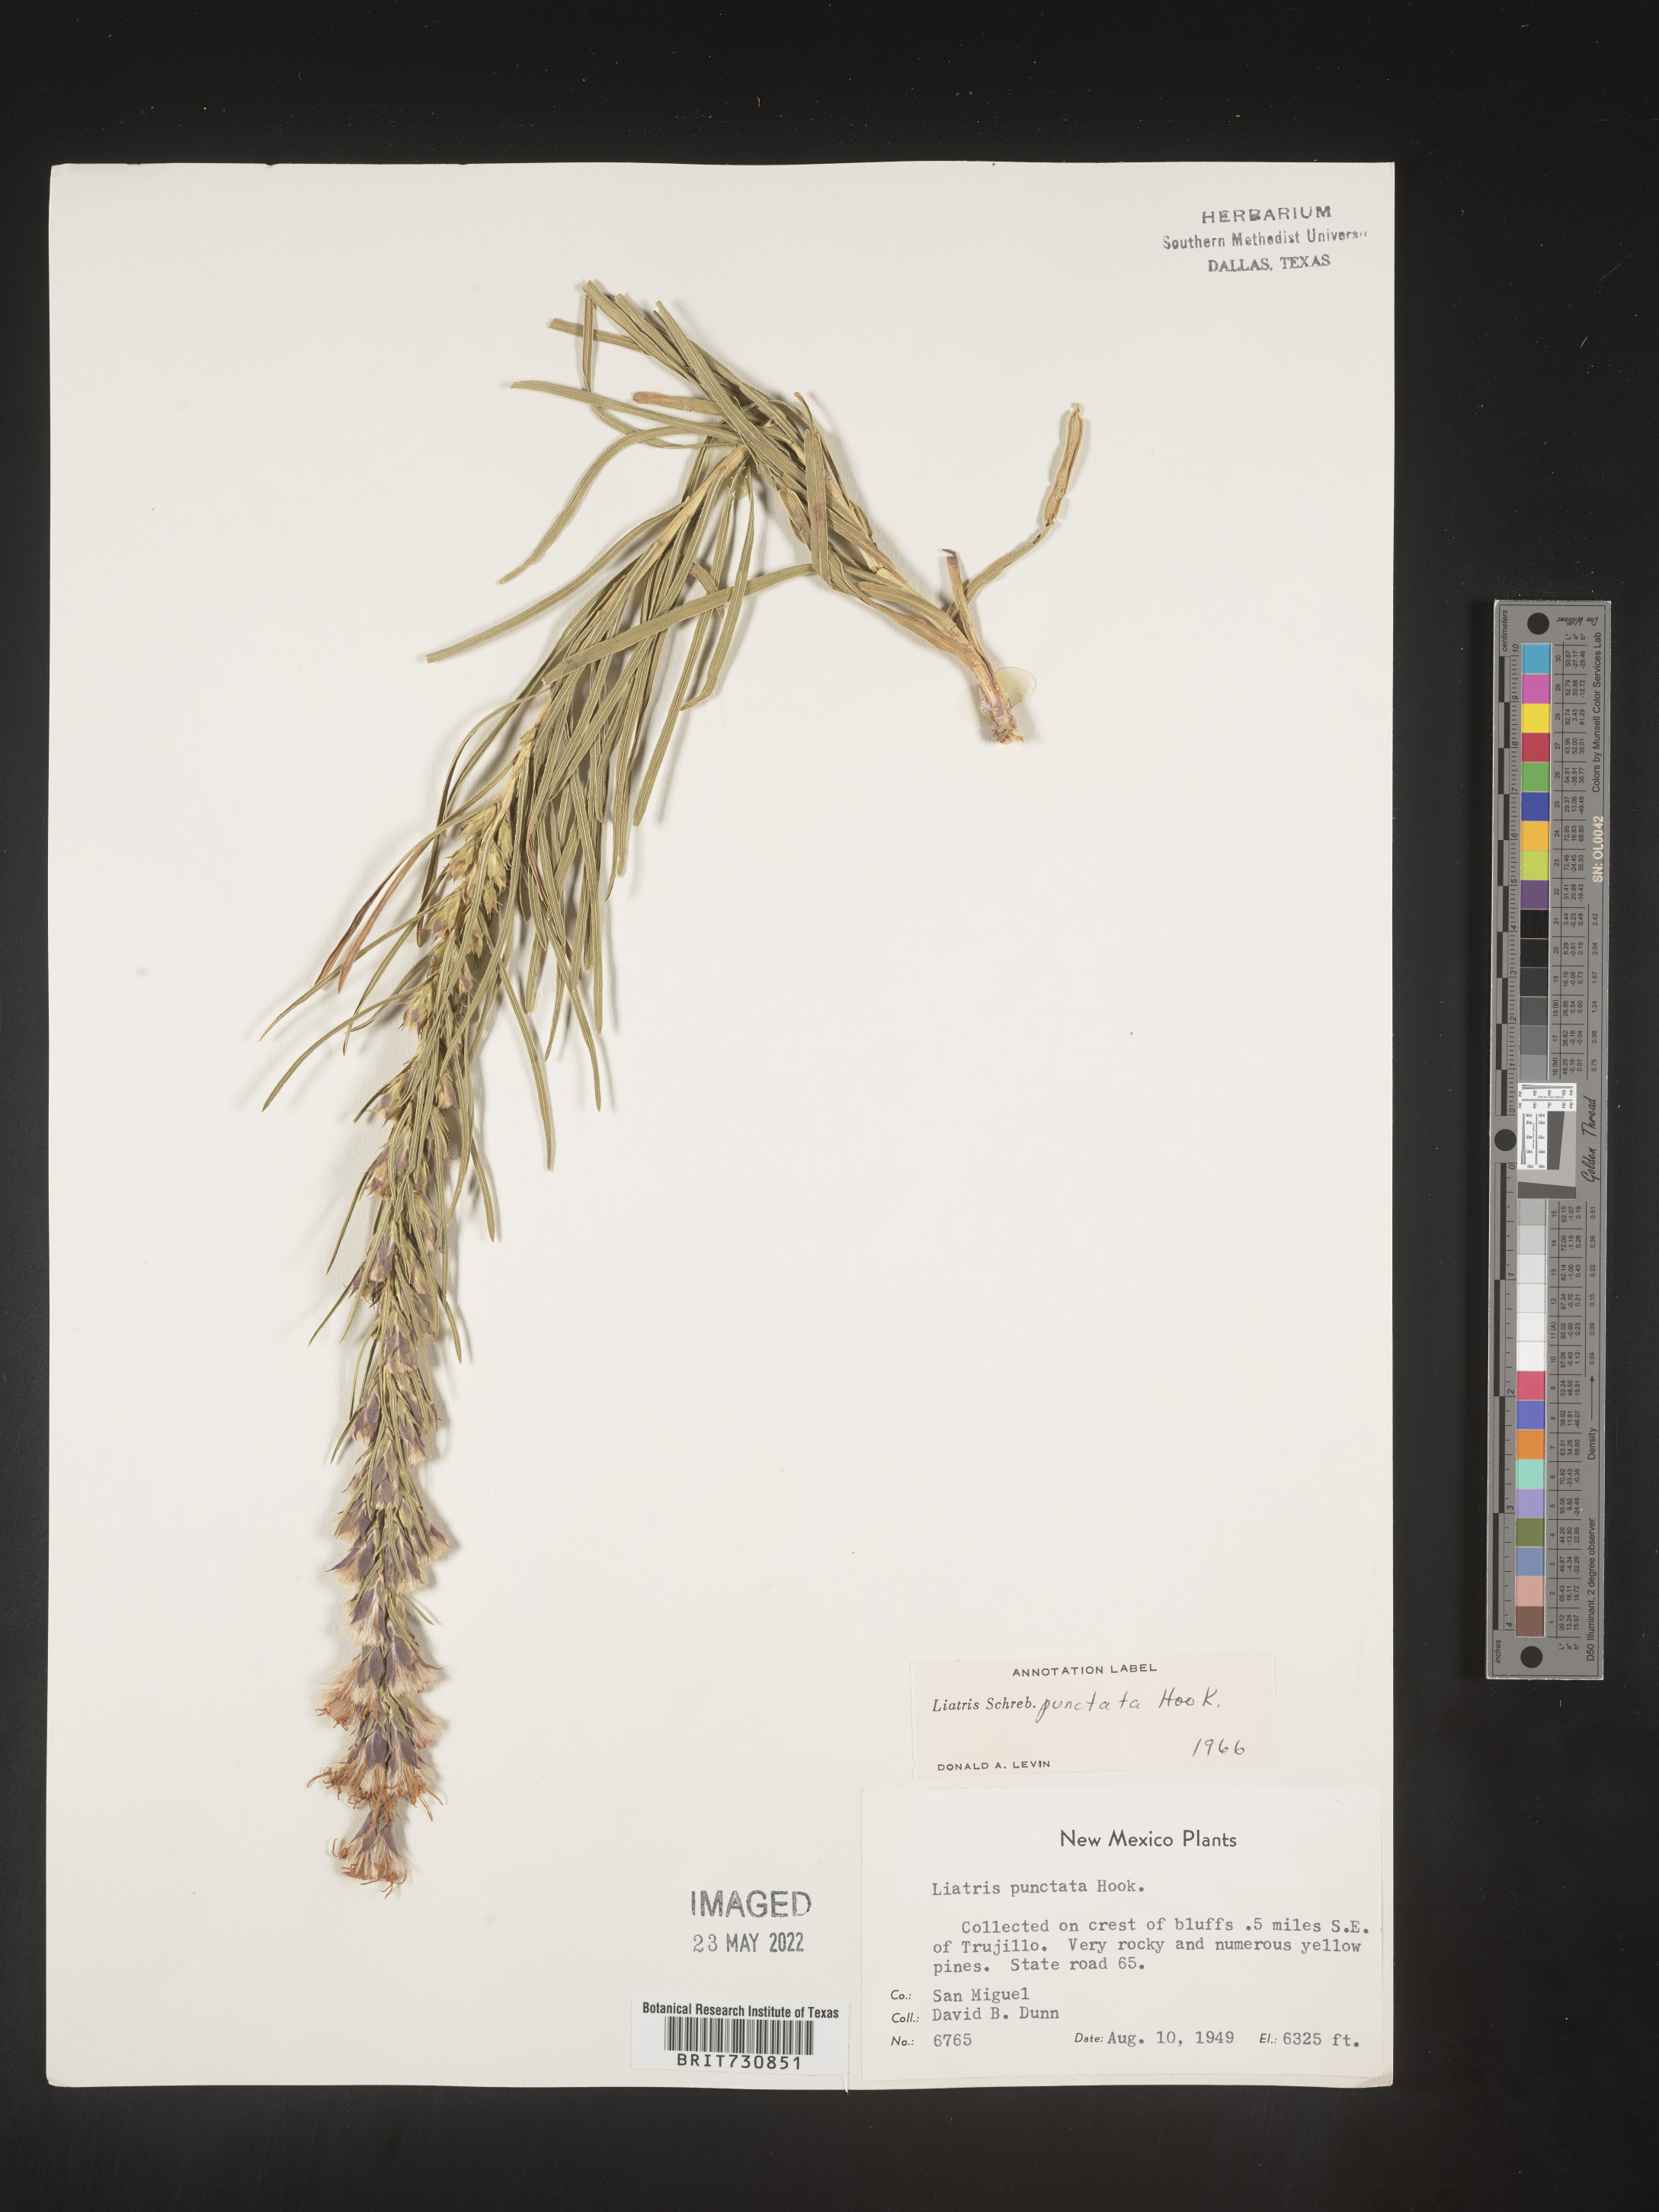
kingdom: Plantae
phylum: Tracheophyta
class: Magnoliopsida
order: Asterales
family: Asteraceae
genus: Liatris
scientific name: Liatris punctata
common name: Dotted gayfeather
